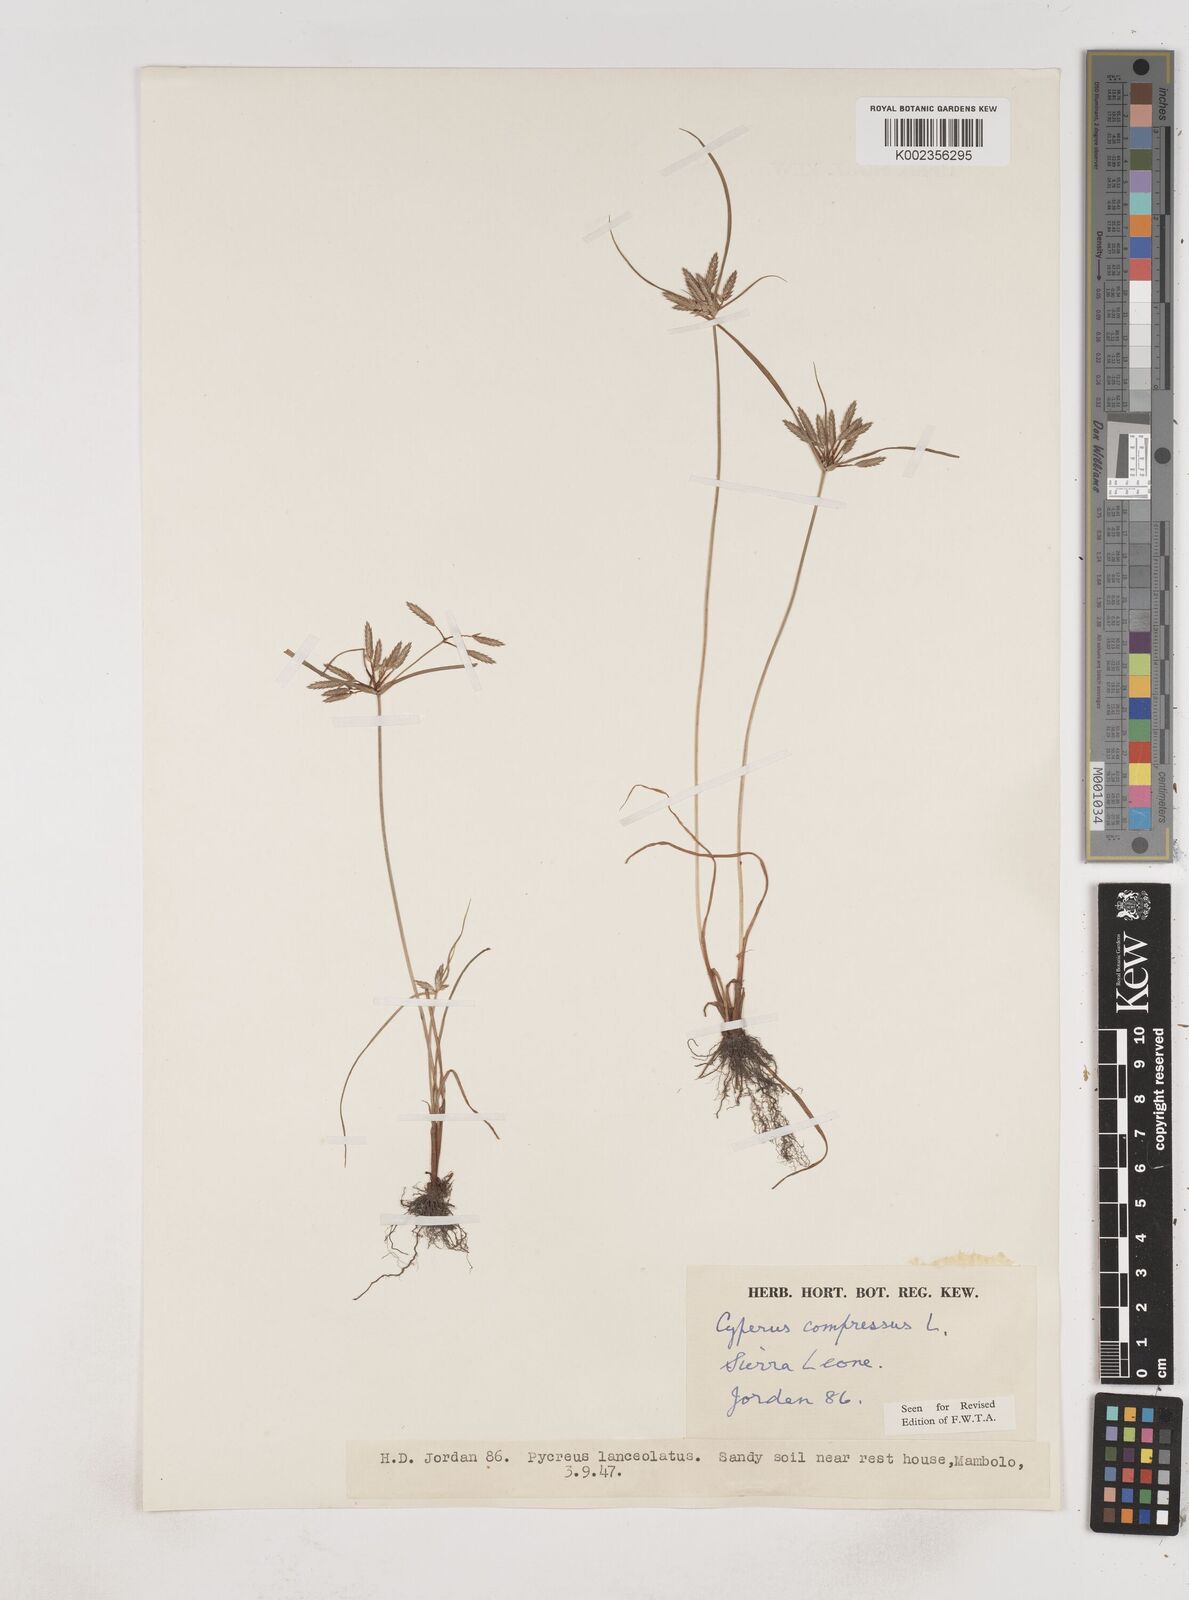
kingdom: Plantae
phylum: Tracheophyta
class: Liliopsida
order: Poales
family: Cyperaceae
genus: Cyperus
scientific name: Cyperus compressus
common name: Poorland flatsedge
